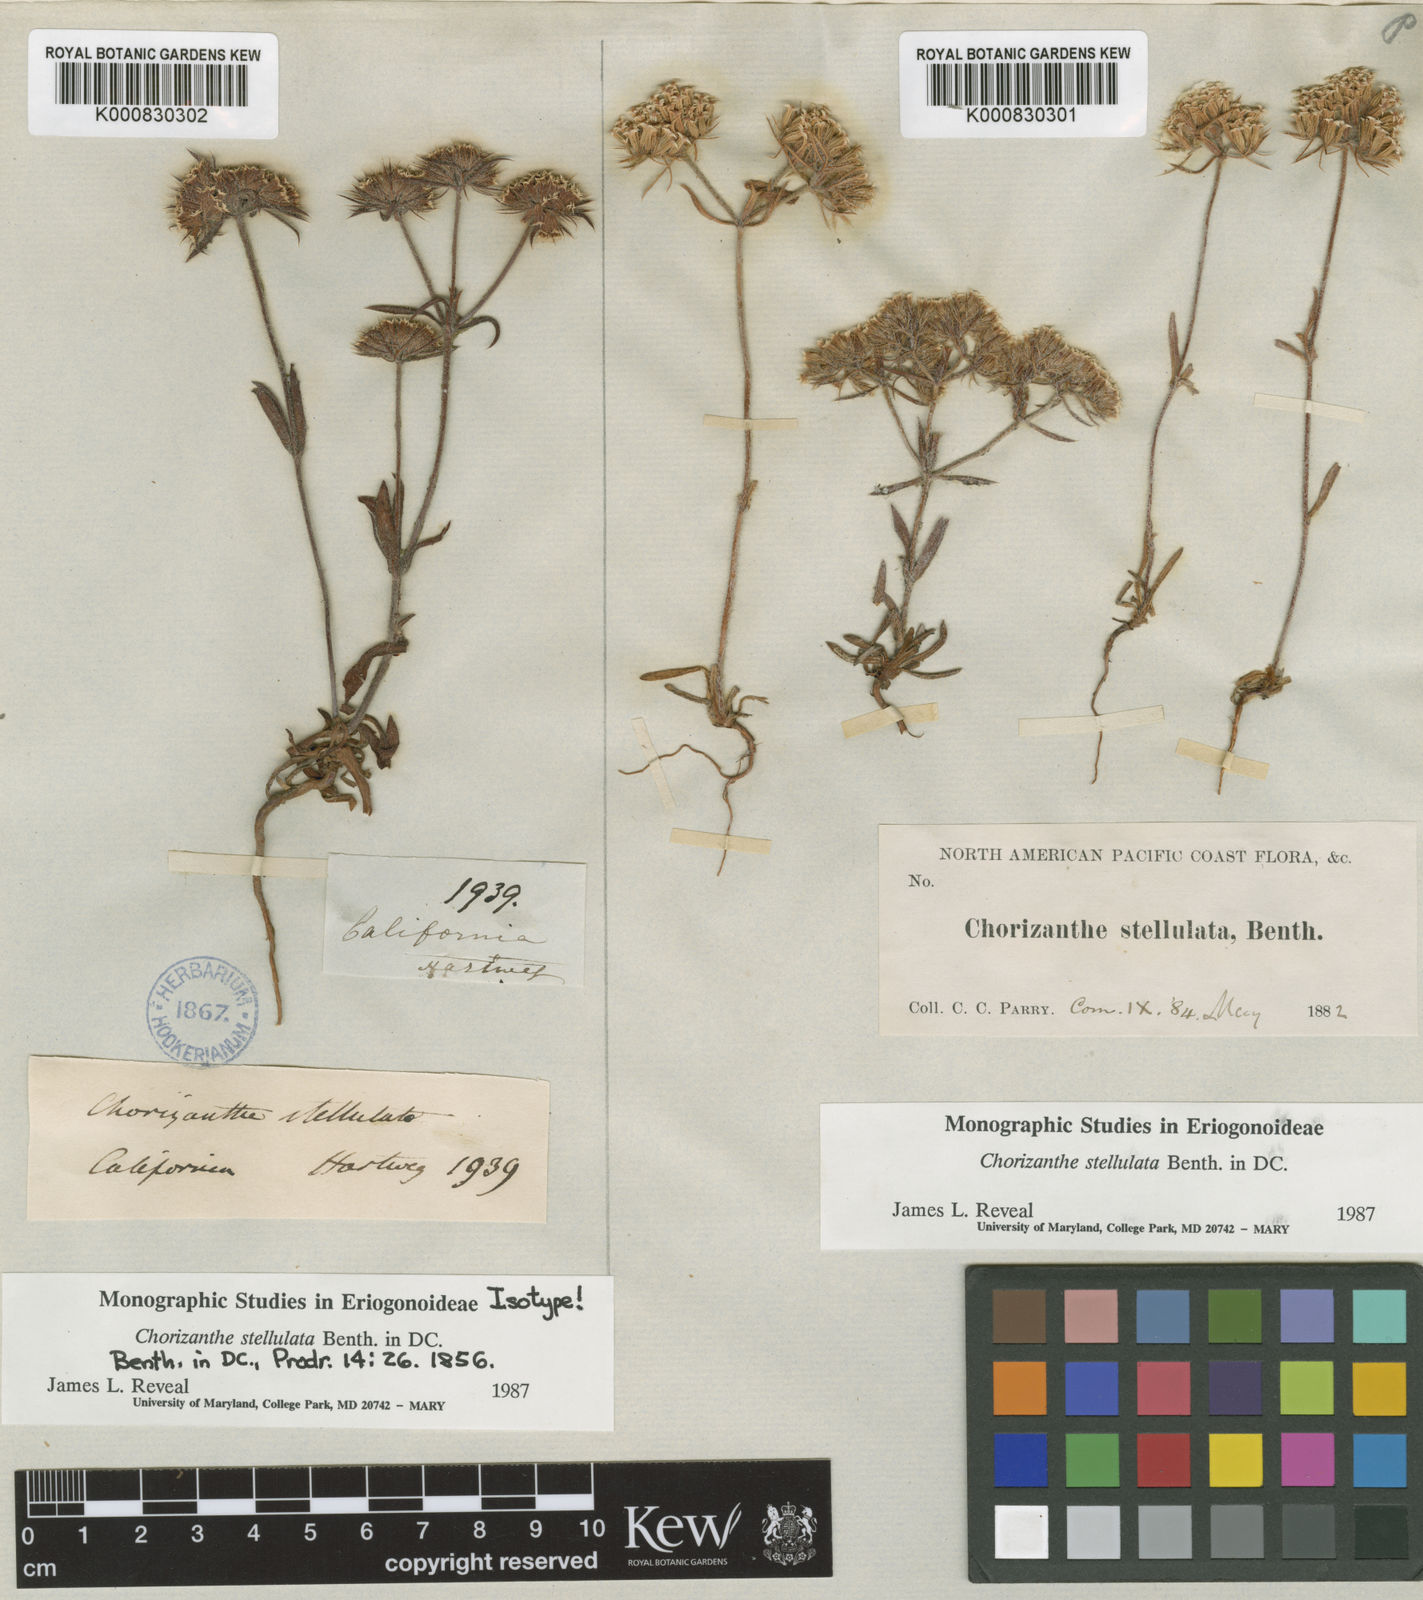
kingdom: Plantae
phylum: Tracheophyta
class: Magnoliopsida
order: Caryophyllales
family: Polygonaceae
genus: Chorizanthe
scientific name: Chorizanthe stellulata
